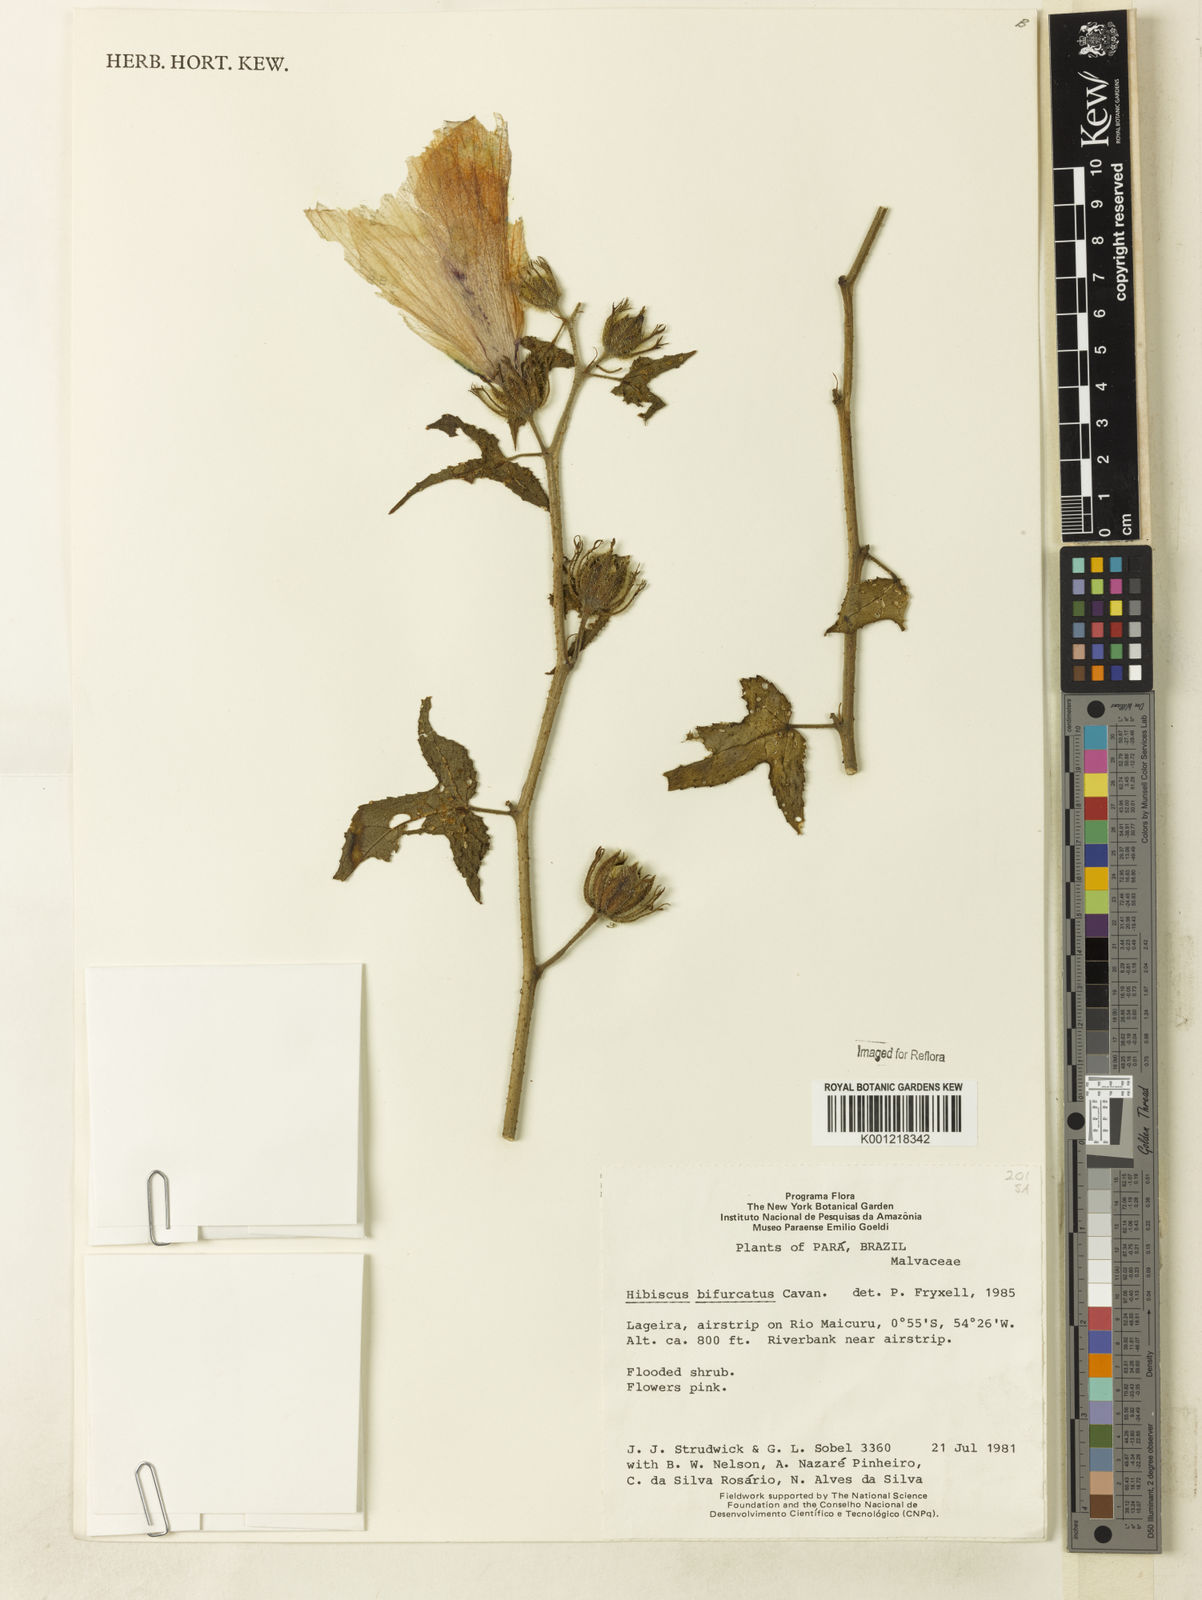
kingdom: Plantae
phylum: Tracheophyta
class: Magnoliopsida
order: Malvales
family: Malvaceae
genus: Hibiscus
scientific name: Hibiscus bifurcatus
